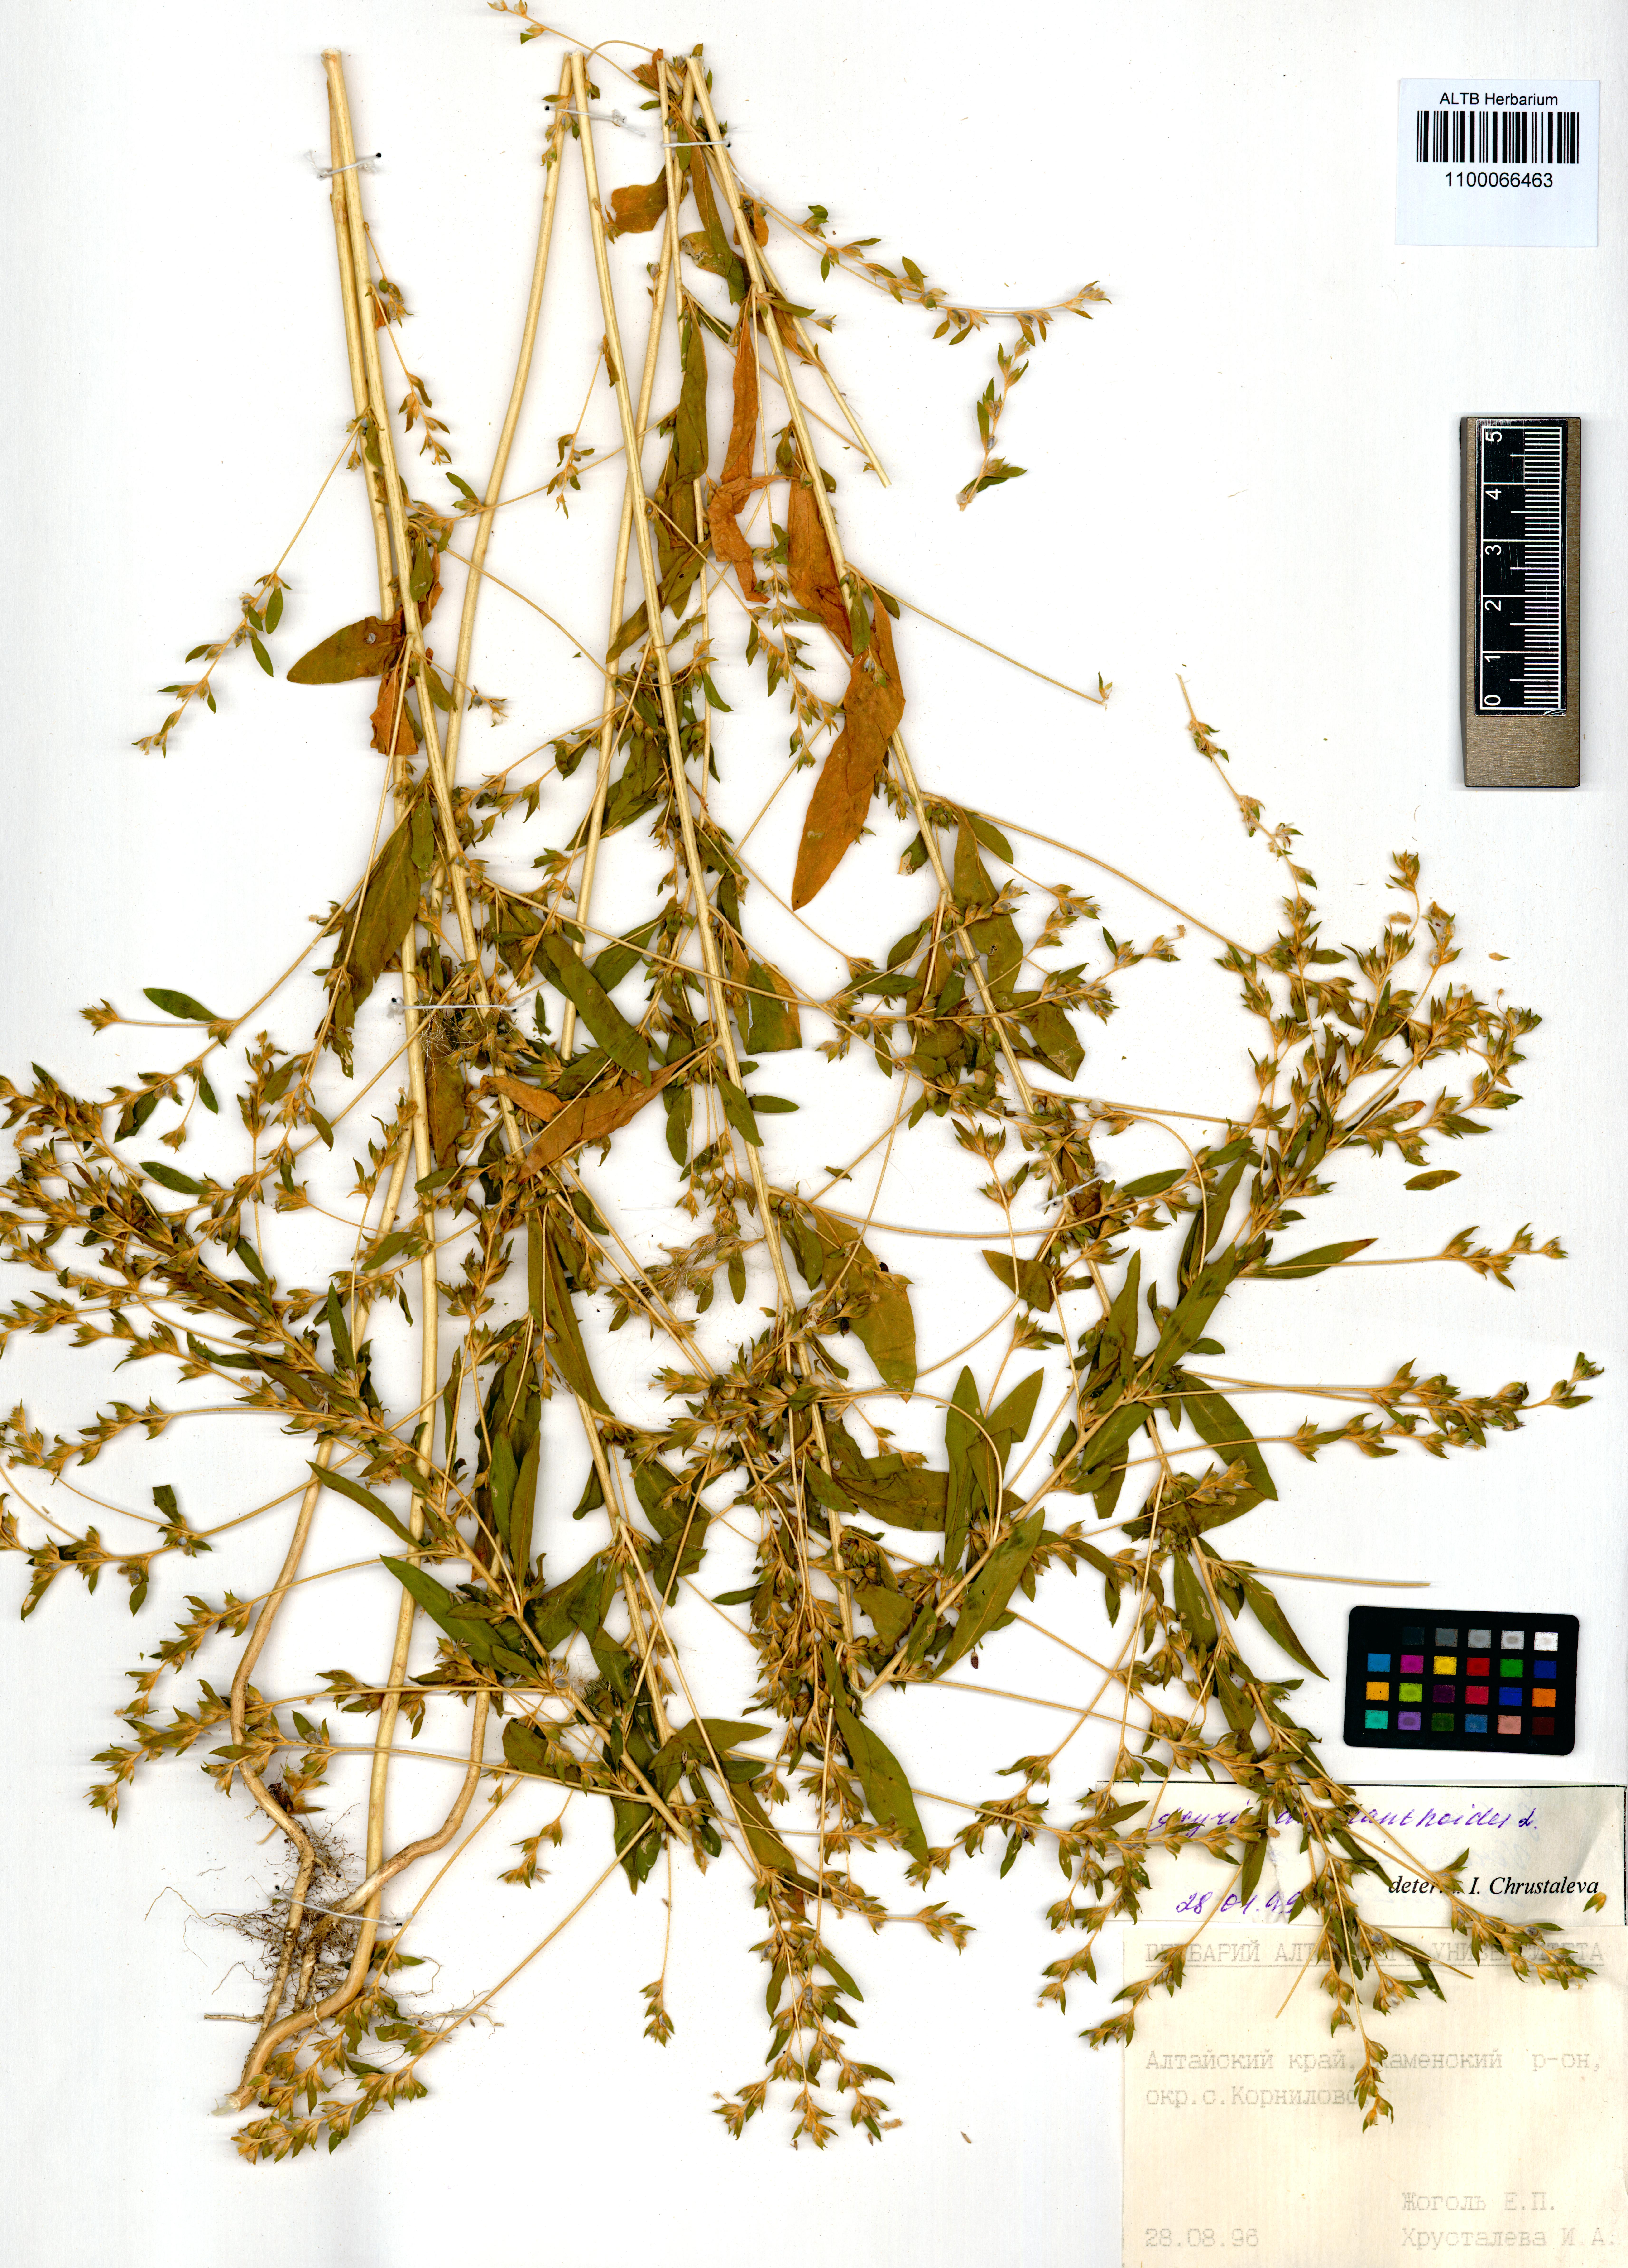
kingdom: Plantae
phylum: Tracheophyta
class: Magnoliopsida
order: Caryophyllales
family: Amaranthaceae
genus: Axyris
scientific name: Axyris amaranthoides
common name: Russian pigweed
